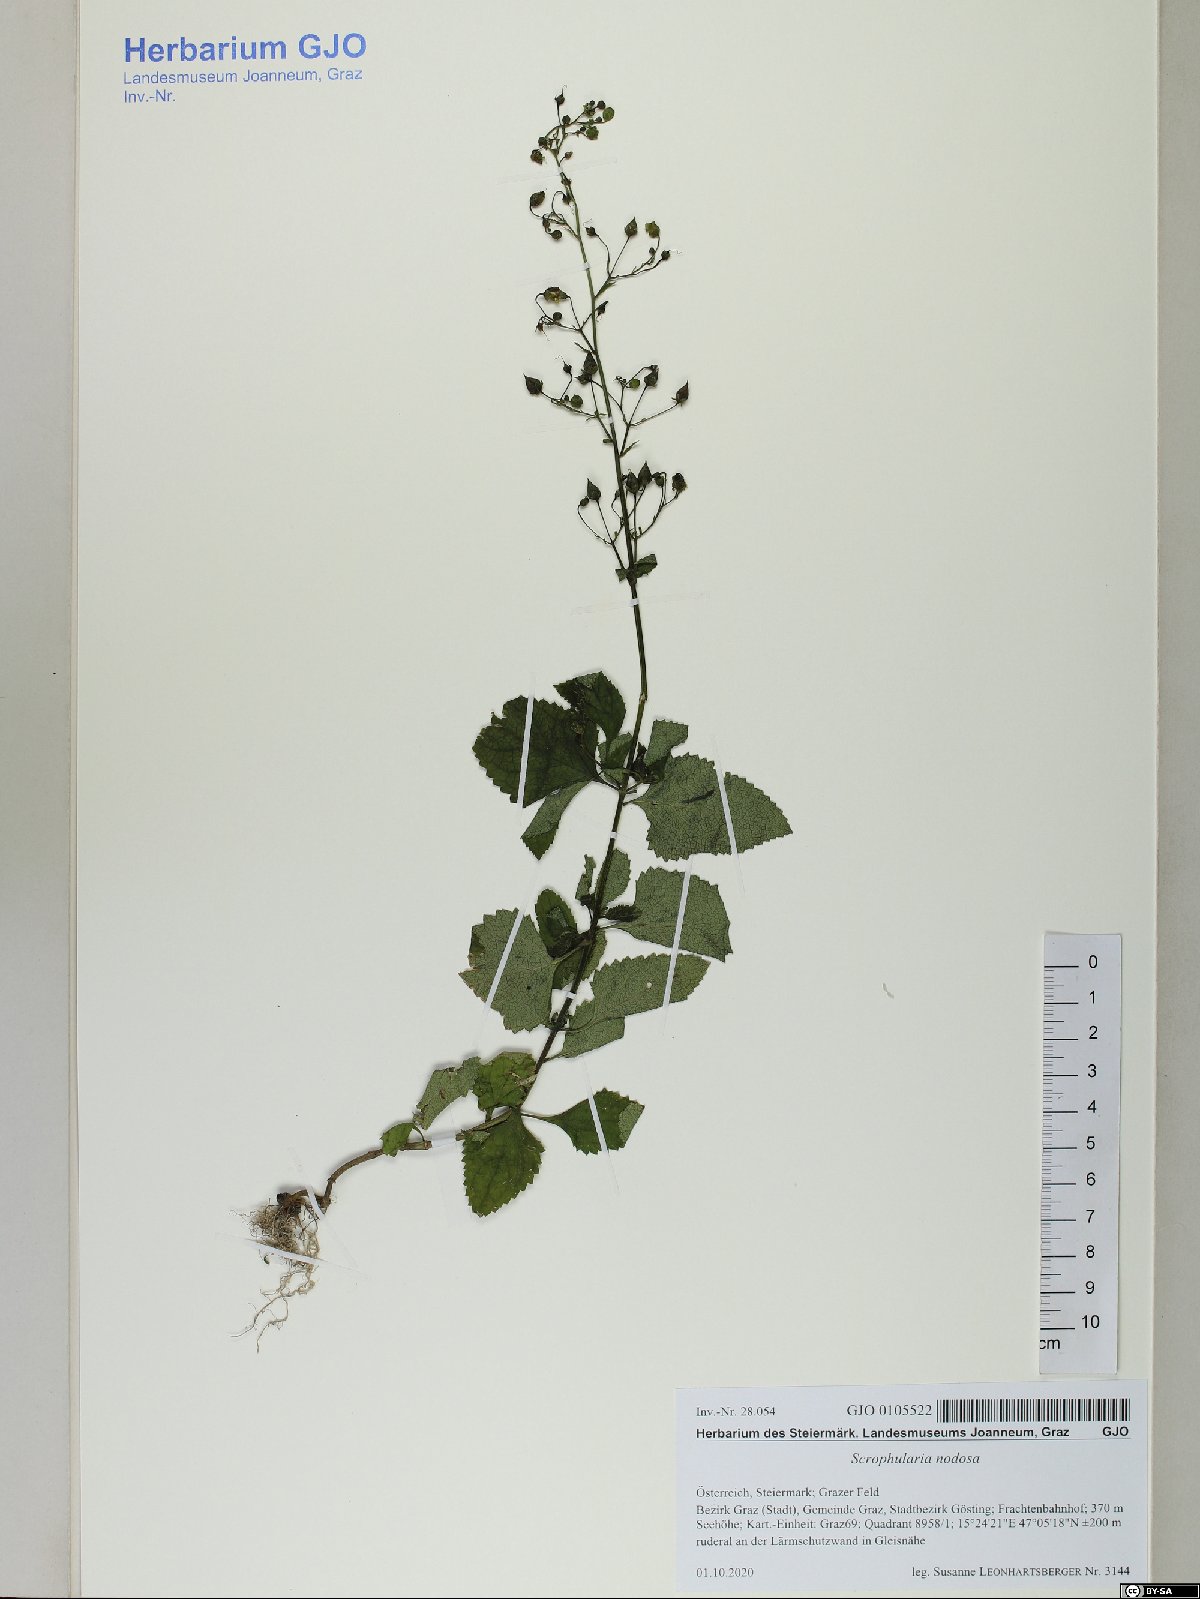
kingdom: Plantae
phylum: Tracheophyta
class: Magnoliopsida
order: Lamiales
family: Scrophulariaceae
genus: Scrophularia
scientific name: Scrophularia nodosa
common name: Common figwort
